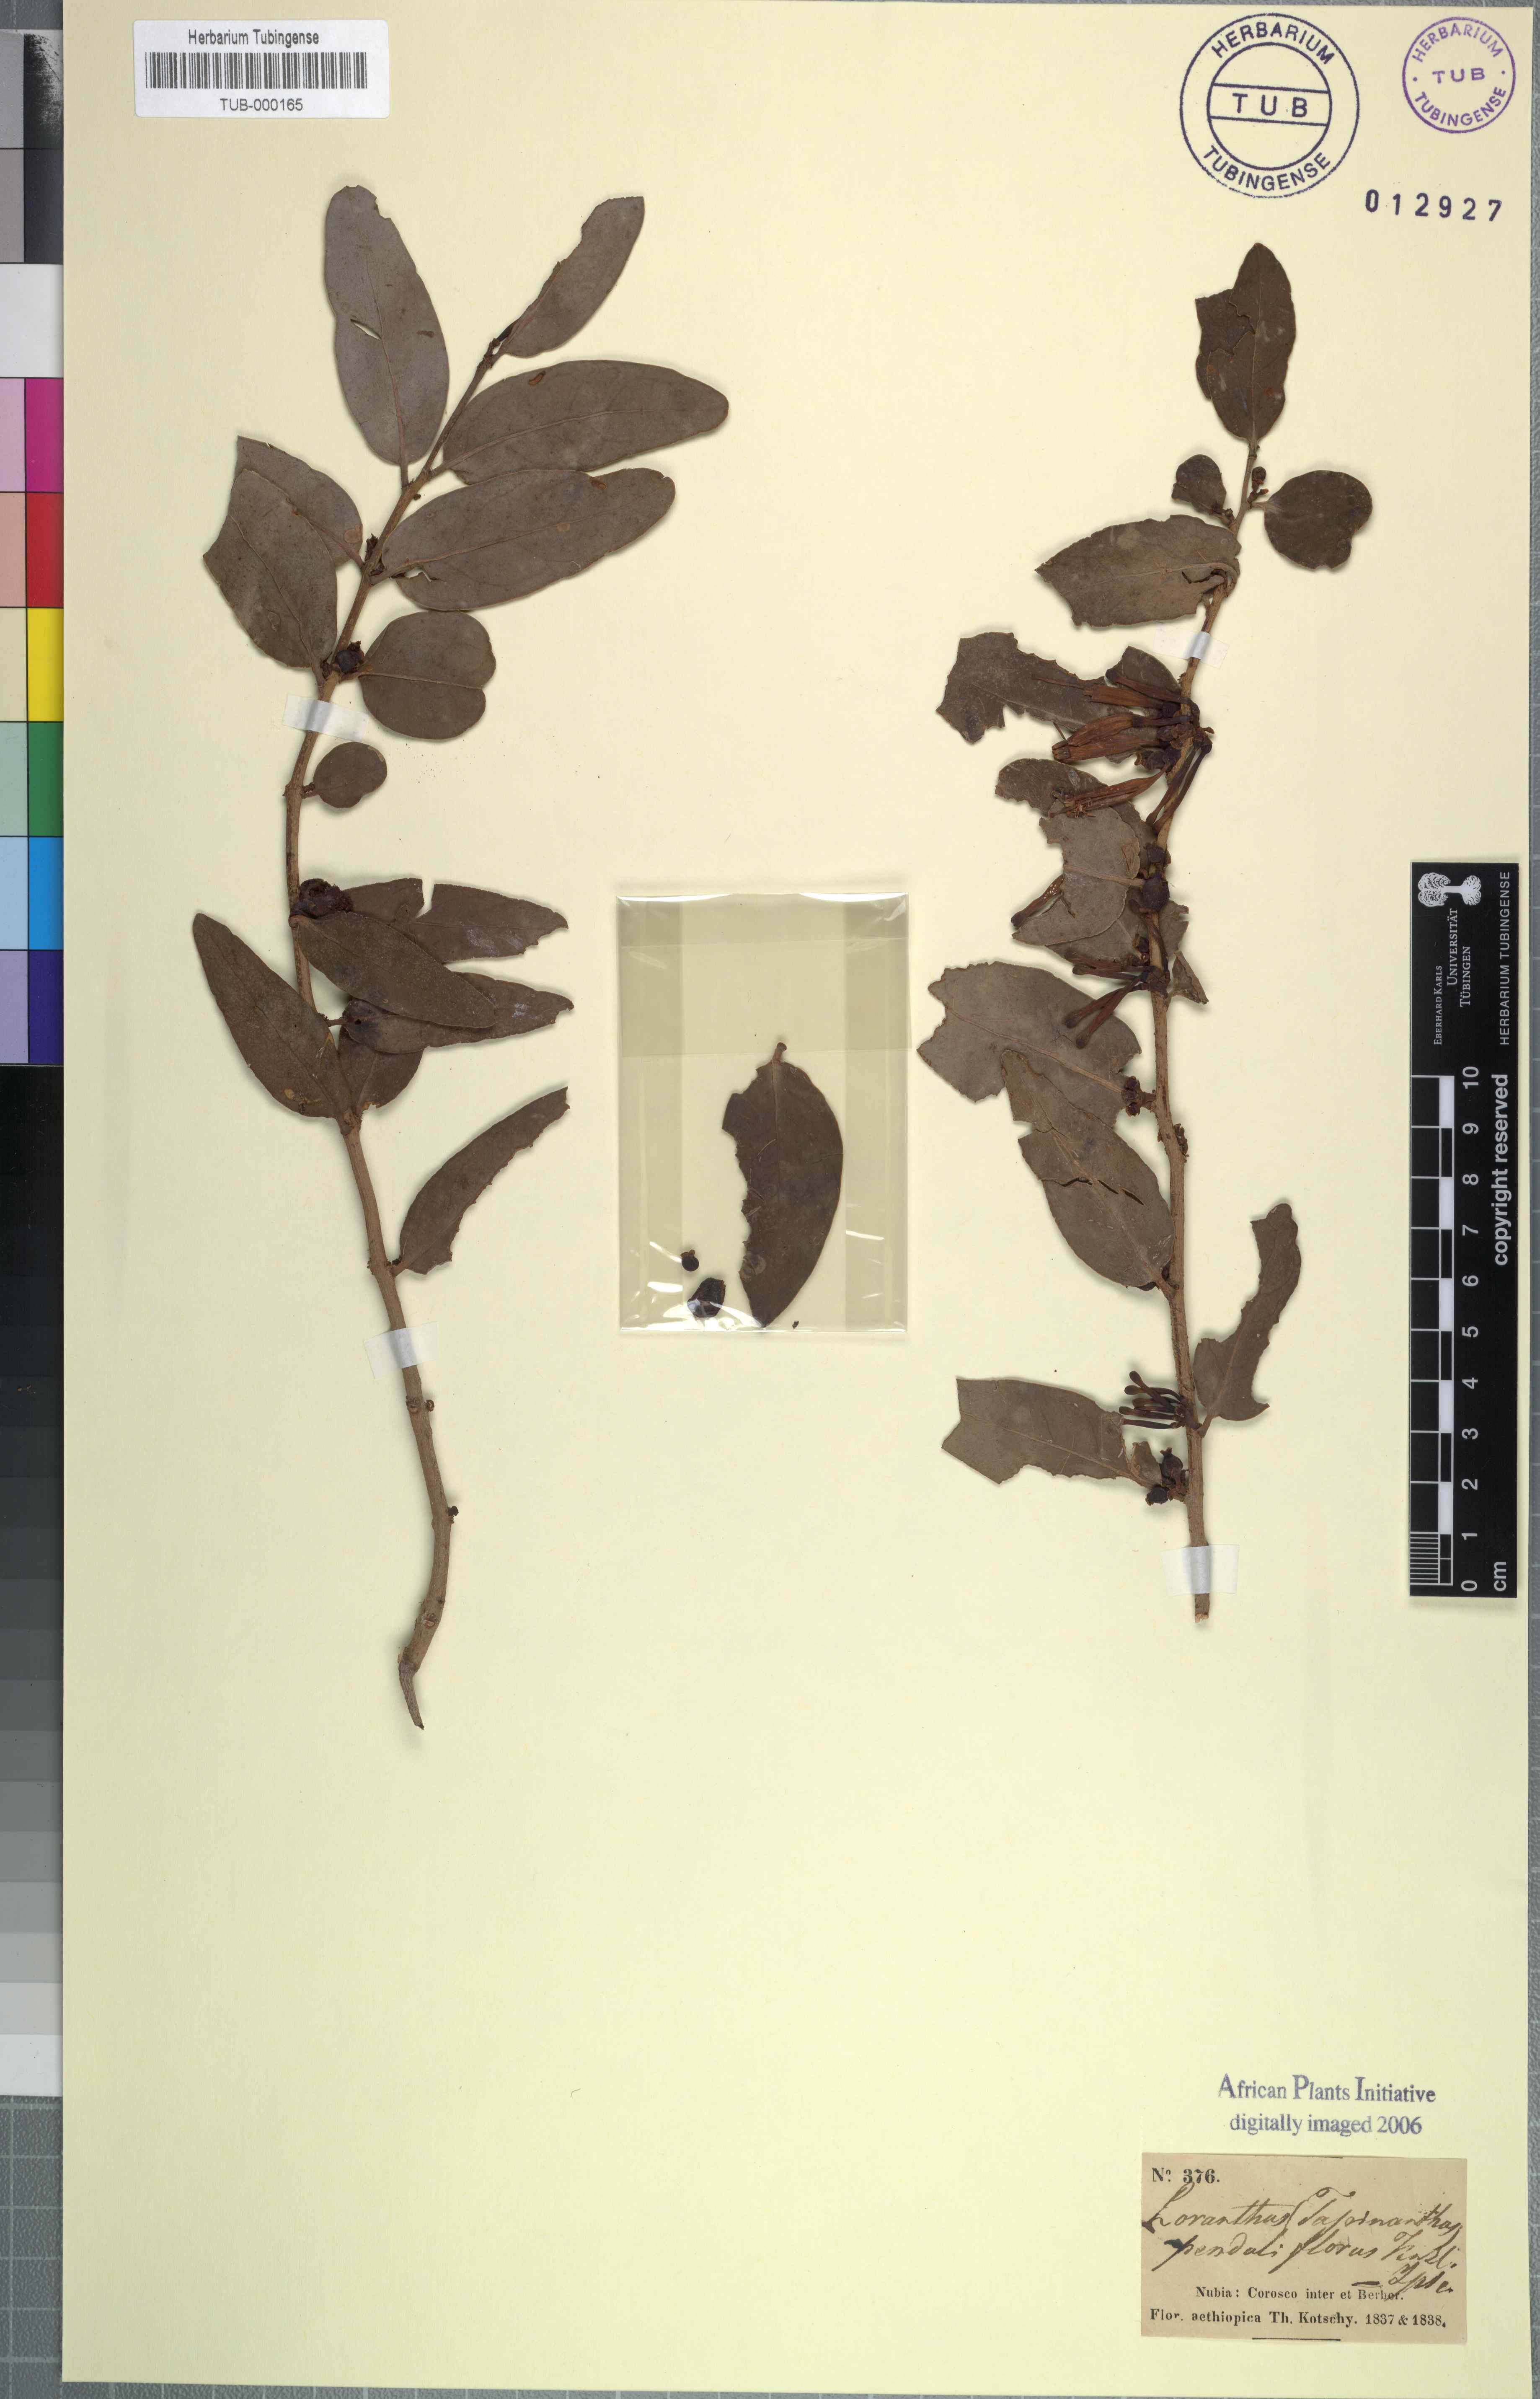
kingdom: Plantae
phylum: Tracheophyta
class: Magnoliopsida
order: Santalales
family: Loranthaceae
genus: Loranthus
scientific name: Loranthus
